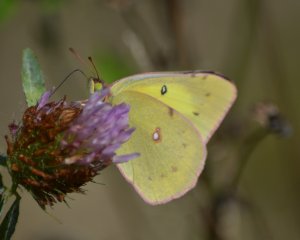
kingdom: Animalia
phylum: Arthropoda
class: Insecta
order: Lepidoptera
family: Pieridae
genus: Colias
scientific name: Colias eurytheme
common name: Orange Sulphur
